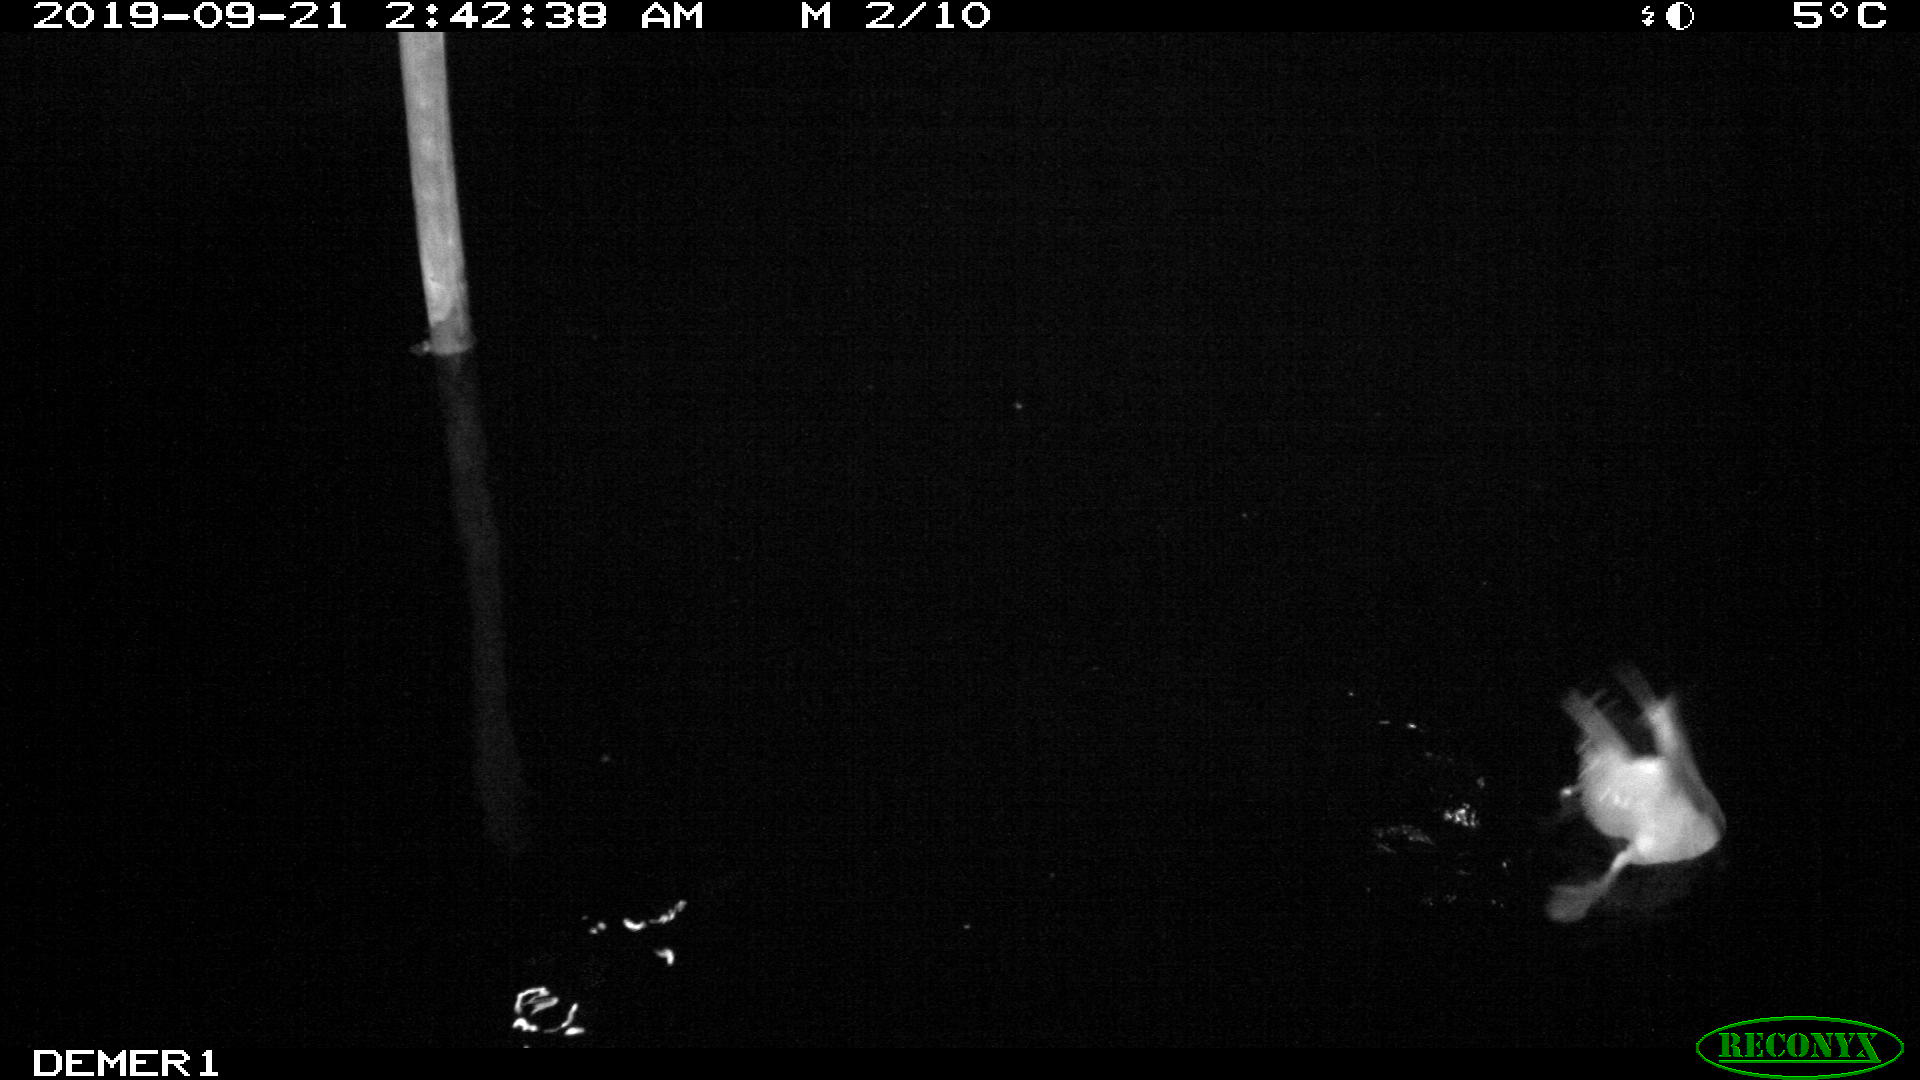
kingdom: Animalia
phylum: Chordata
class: Aves
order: Anseriformes
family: Anatidae
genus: Anas
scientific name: Anas platyrhynchos
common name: Mallard
